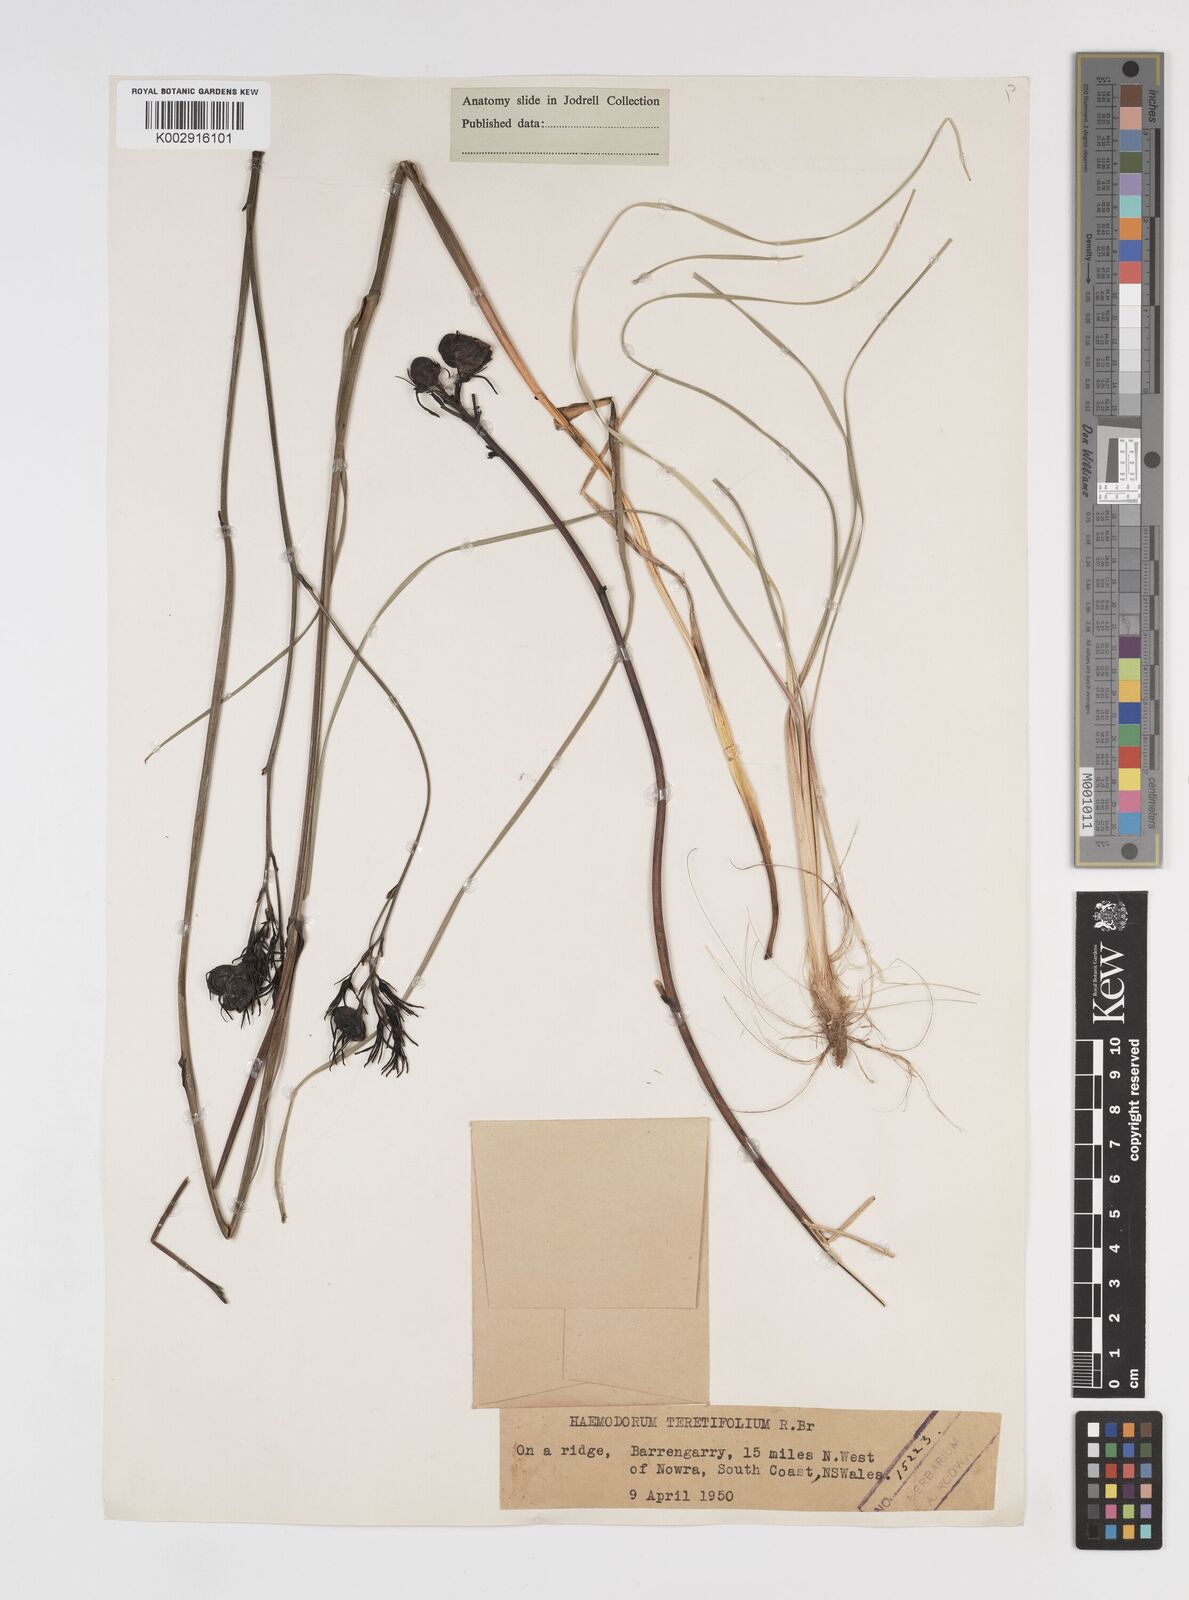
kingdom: Plantae
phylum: Tracheophyta
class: Liliopsida
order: Commelinales
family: Haemodoraceae
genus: Haemodorum
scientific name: Haemodorum corymbosum
